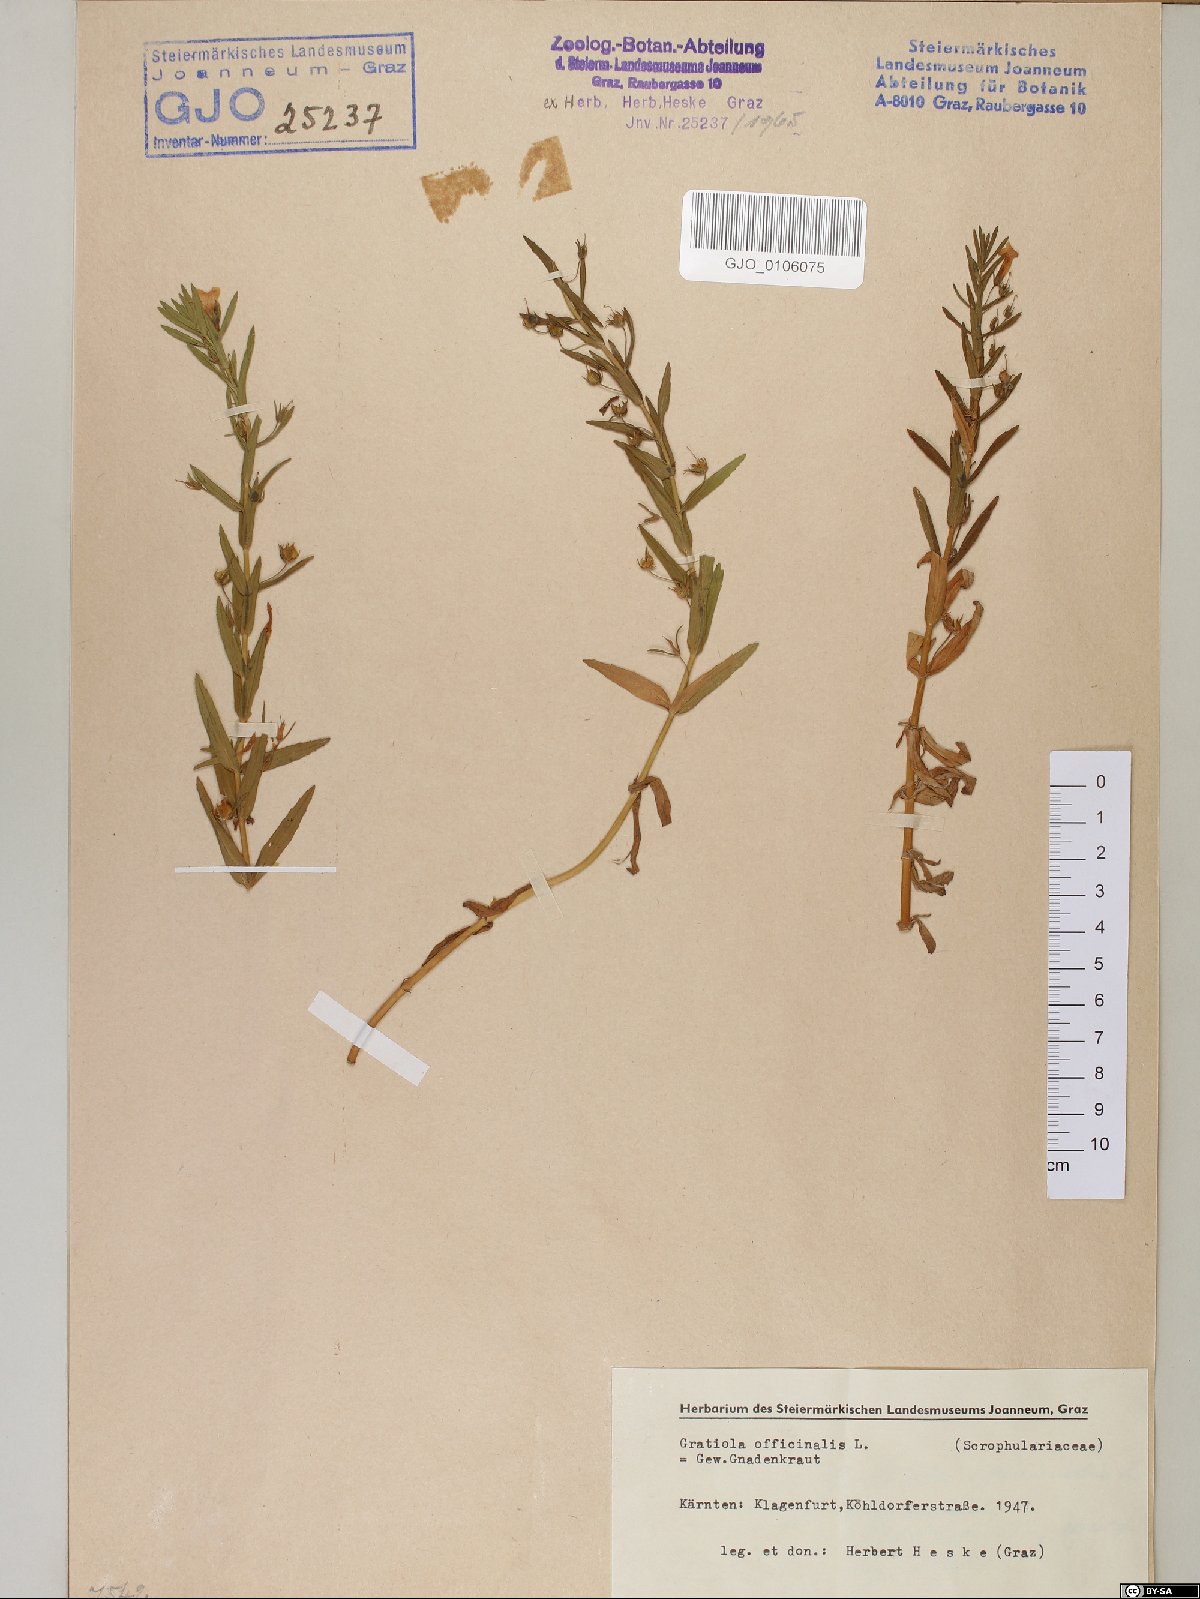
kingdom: Plantae
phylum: Tracheophyta
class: Magnoliopsida
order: Lamiales
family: Plantaginaceae
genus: Gratiola
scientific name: Gratiola officinalis
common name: Gratiola
